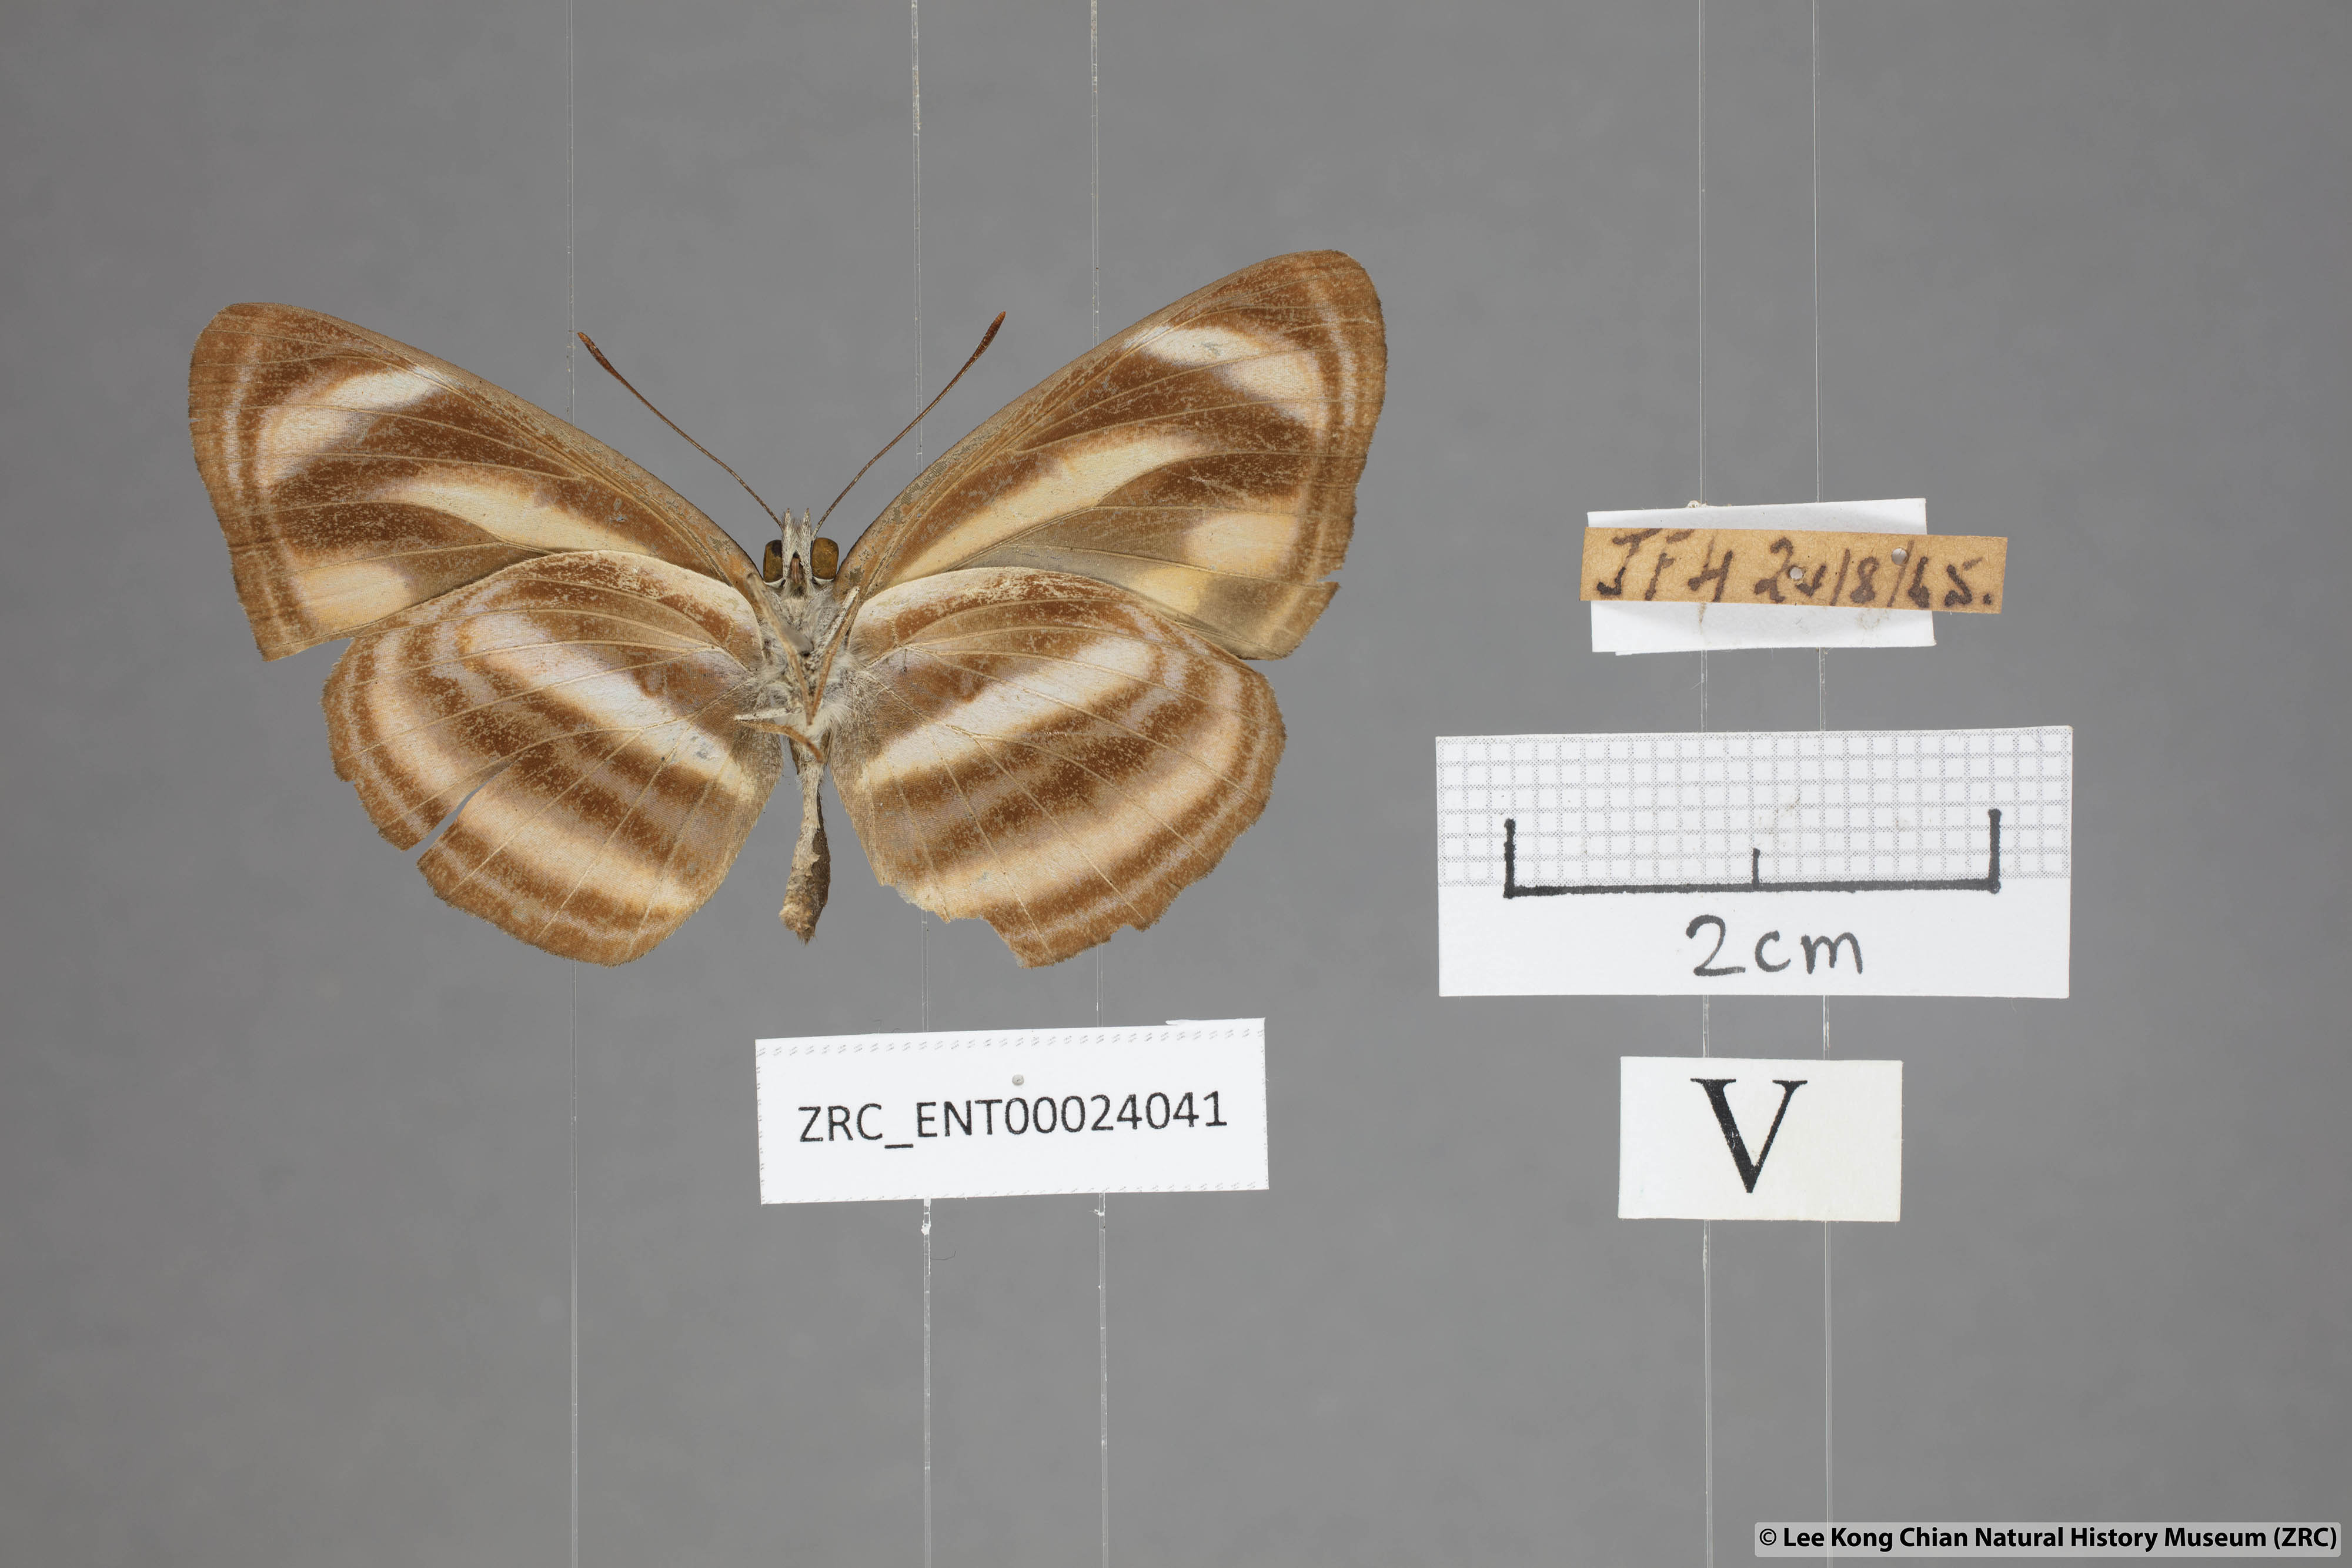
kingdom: Animalia
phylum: Arthropoda
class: Insecta
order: Lepidoptera
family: Nymphalidae
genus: Neptis
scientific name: Neptis miah
